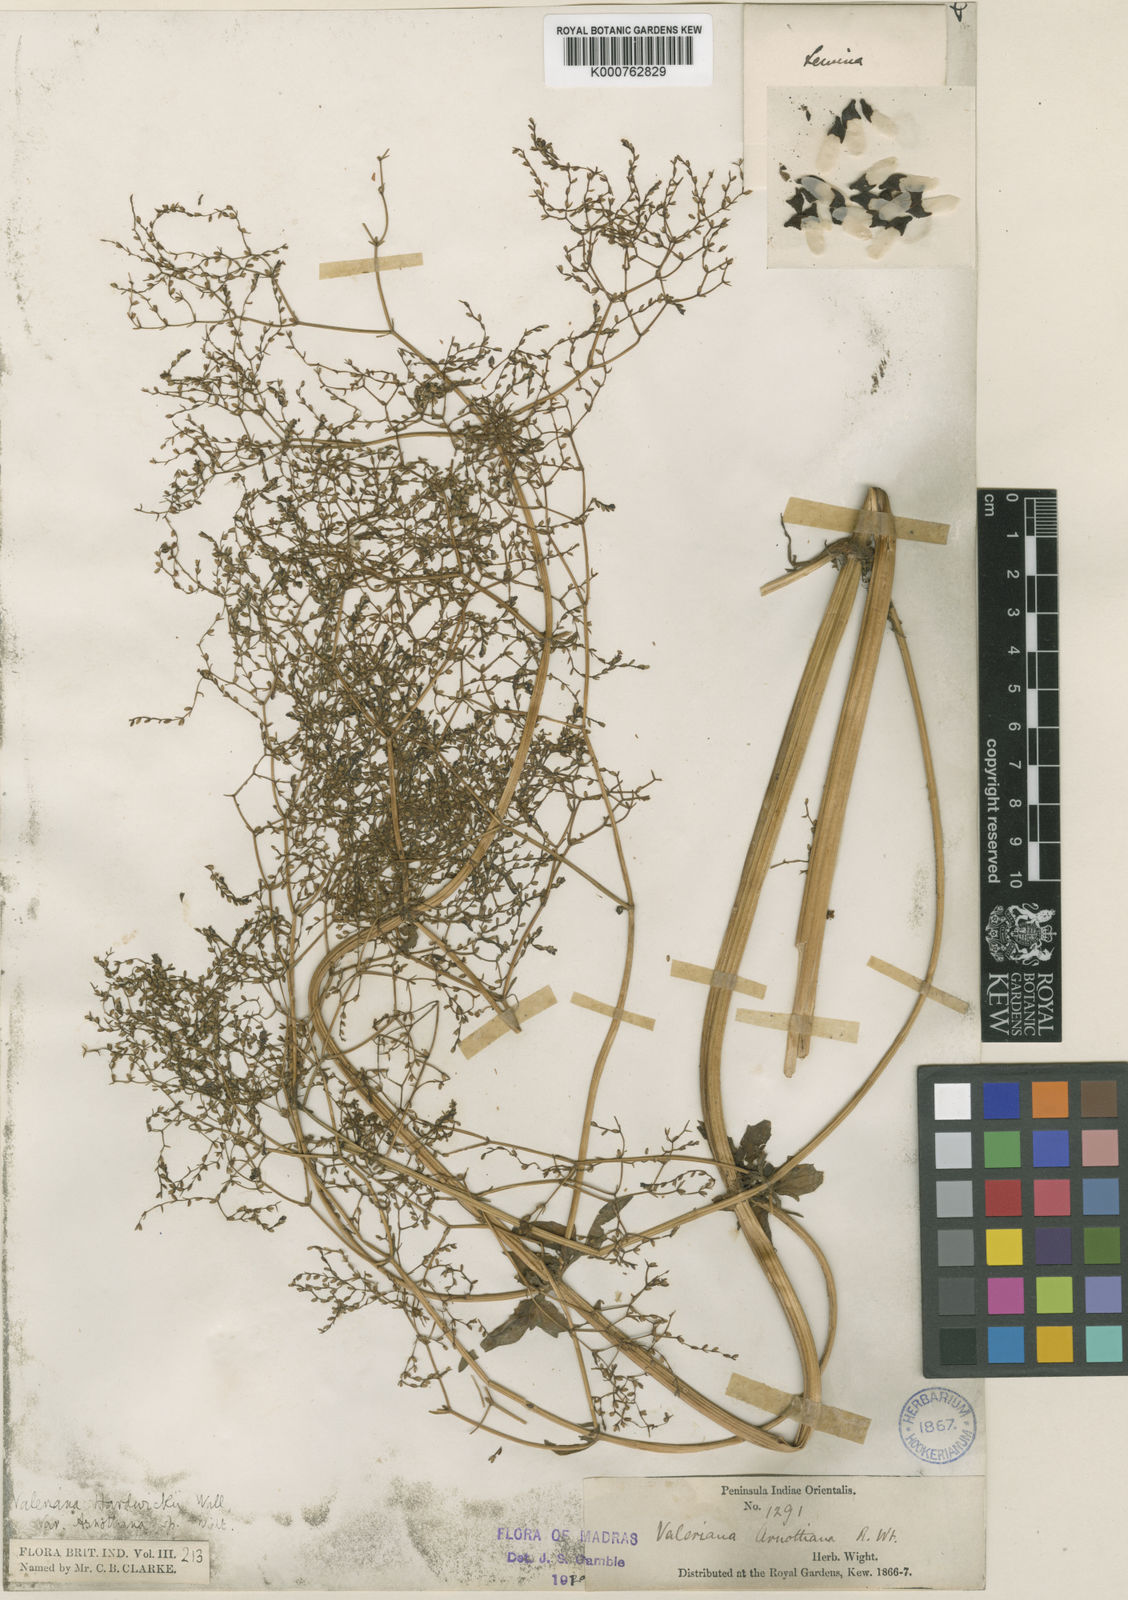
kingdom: Plantae
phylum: Tracheophyta
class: Magnoliopsida
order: Dipsacales
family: Caprifoliaceae
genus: Valeriana
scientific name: Valeriana hardwickei
